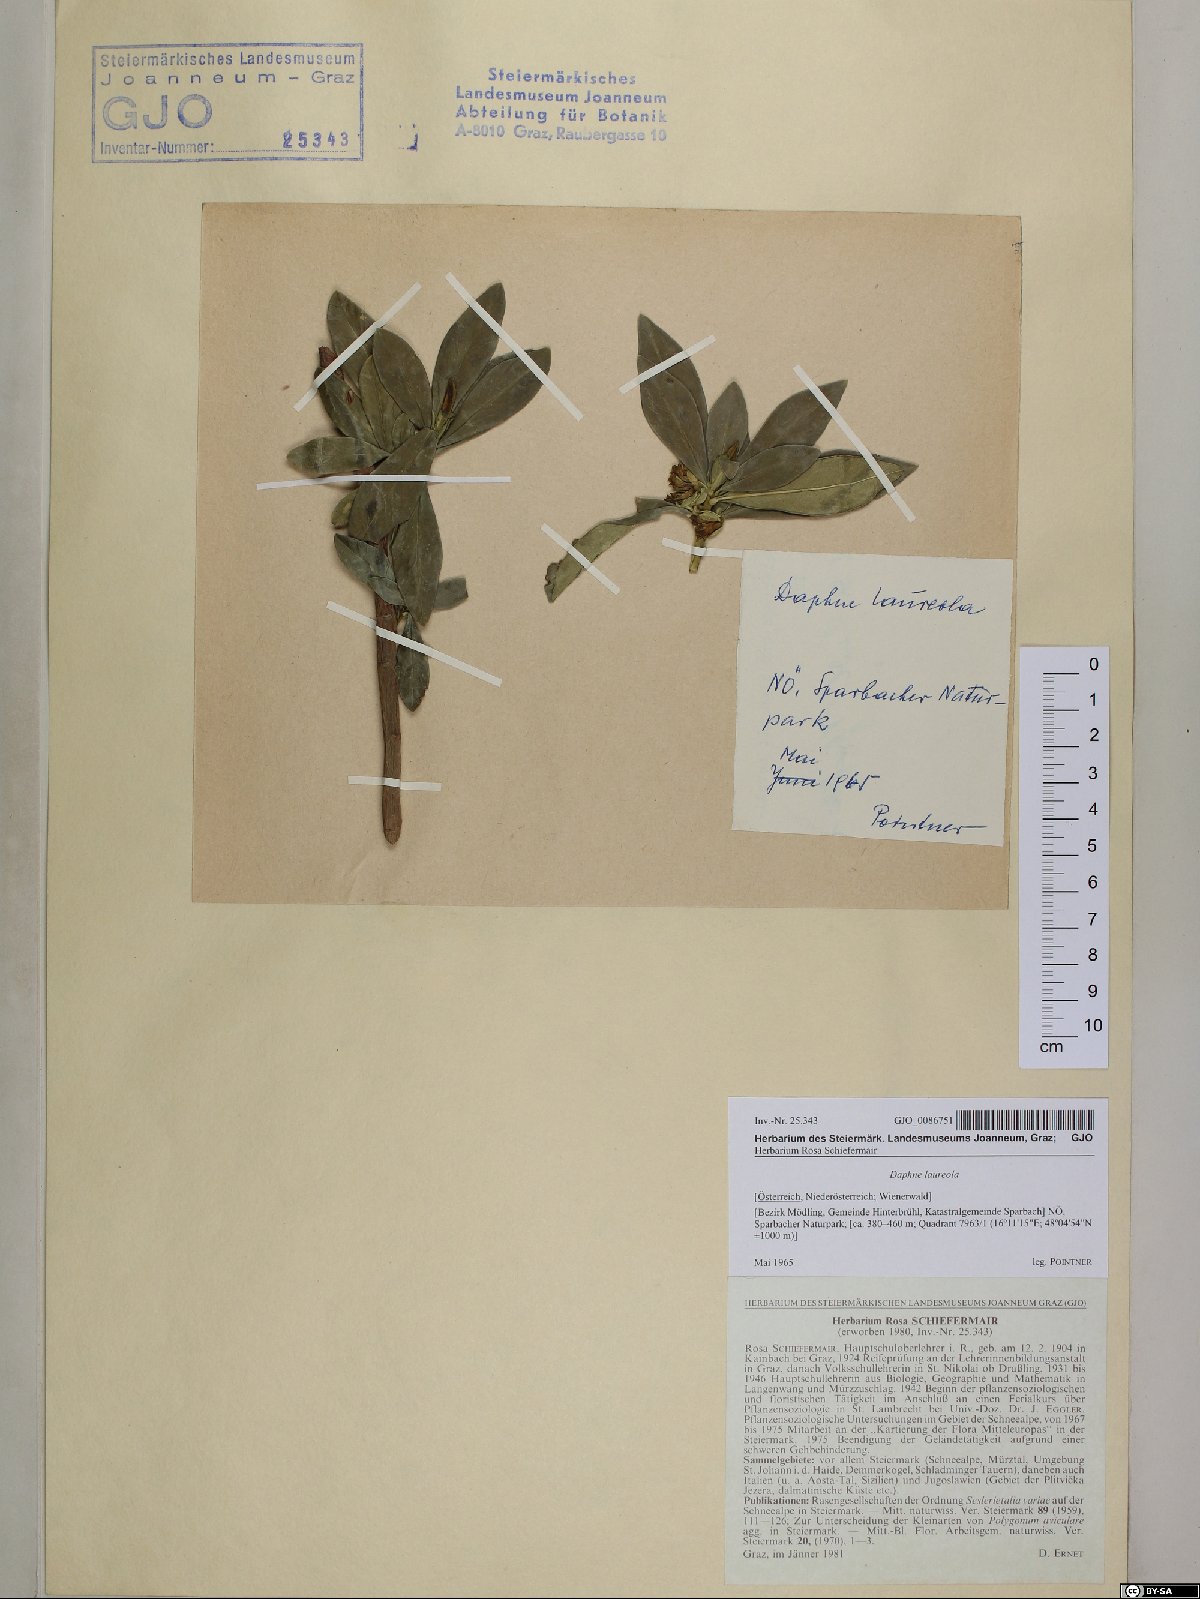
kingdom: Plantae
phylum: Tracheophyta
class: Magnoliopsida
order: Malvales
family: Thymelaeaceae
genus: Daphne
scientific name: Daphne laureola
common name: Spurge-laurel
